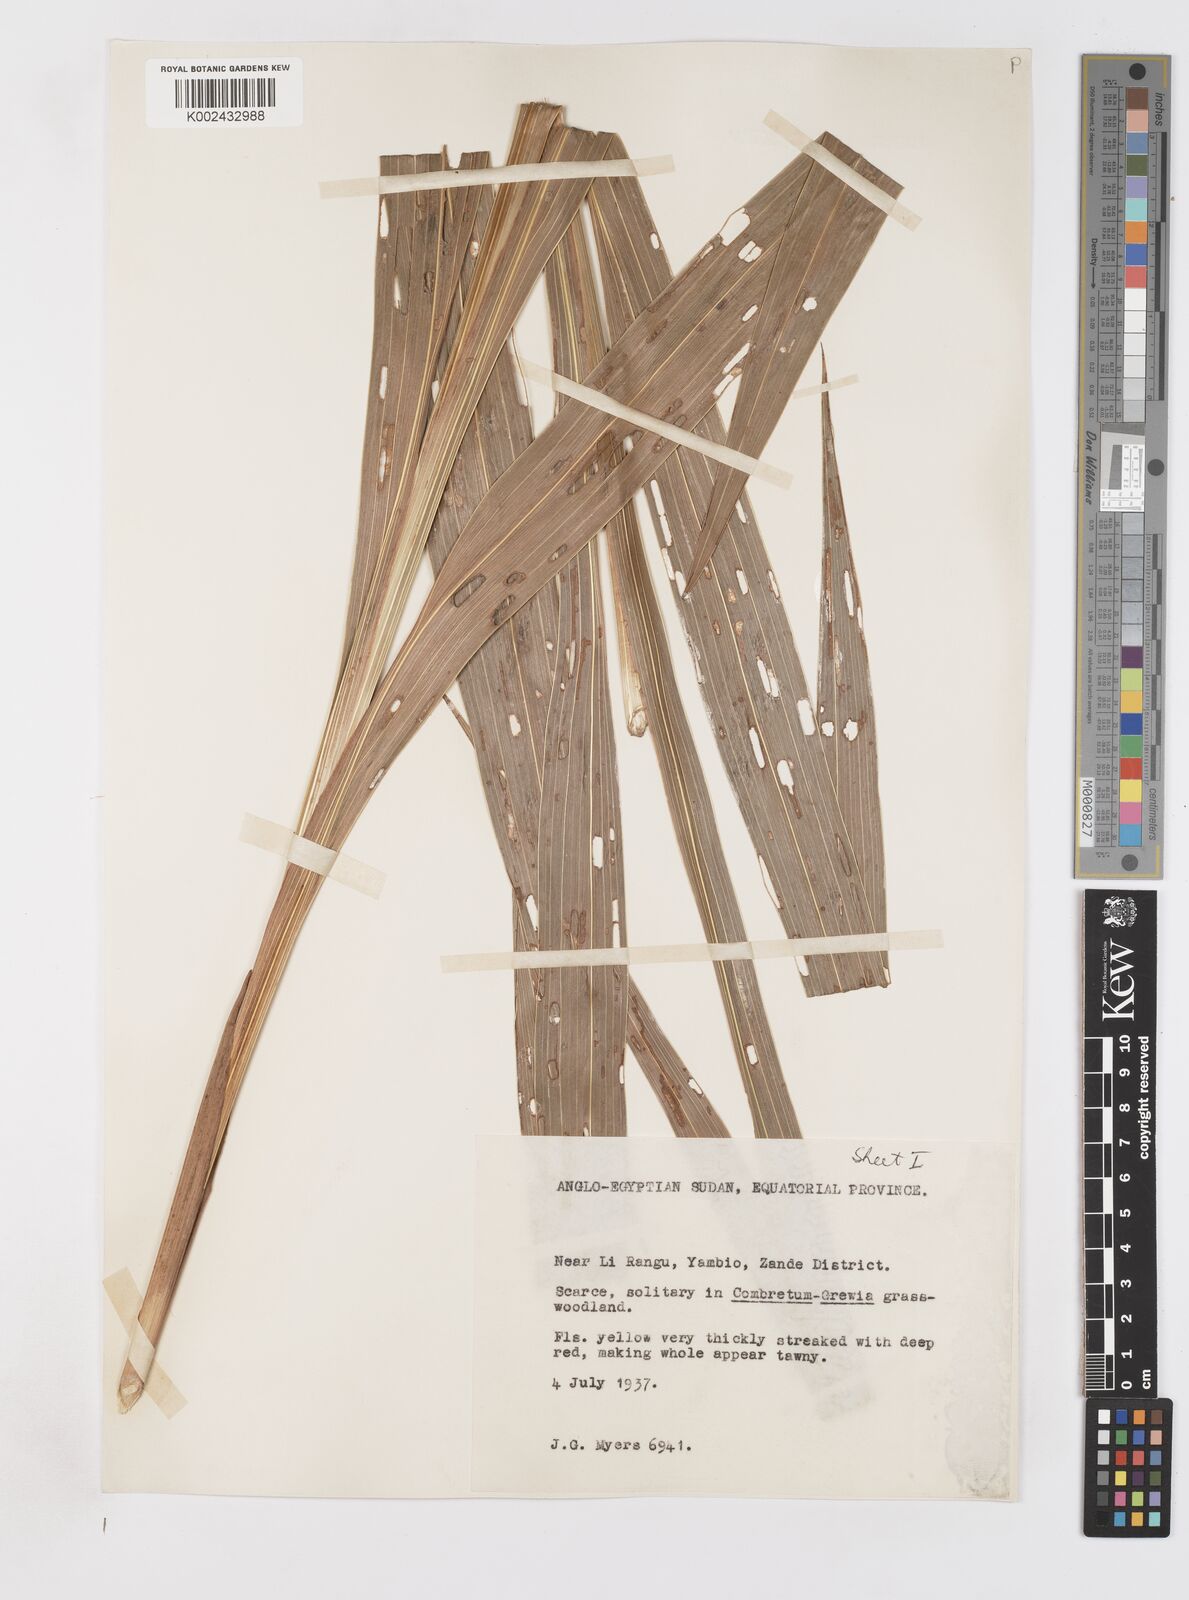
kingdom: Plantae
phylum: Tracheophyta
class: Liliopsida
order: Asparagales
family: Iridaceae
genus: Gladiolus
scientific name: Gladiolus dalenii
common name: Cornflag
